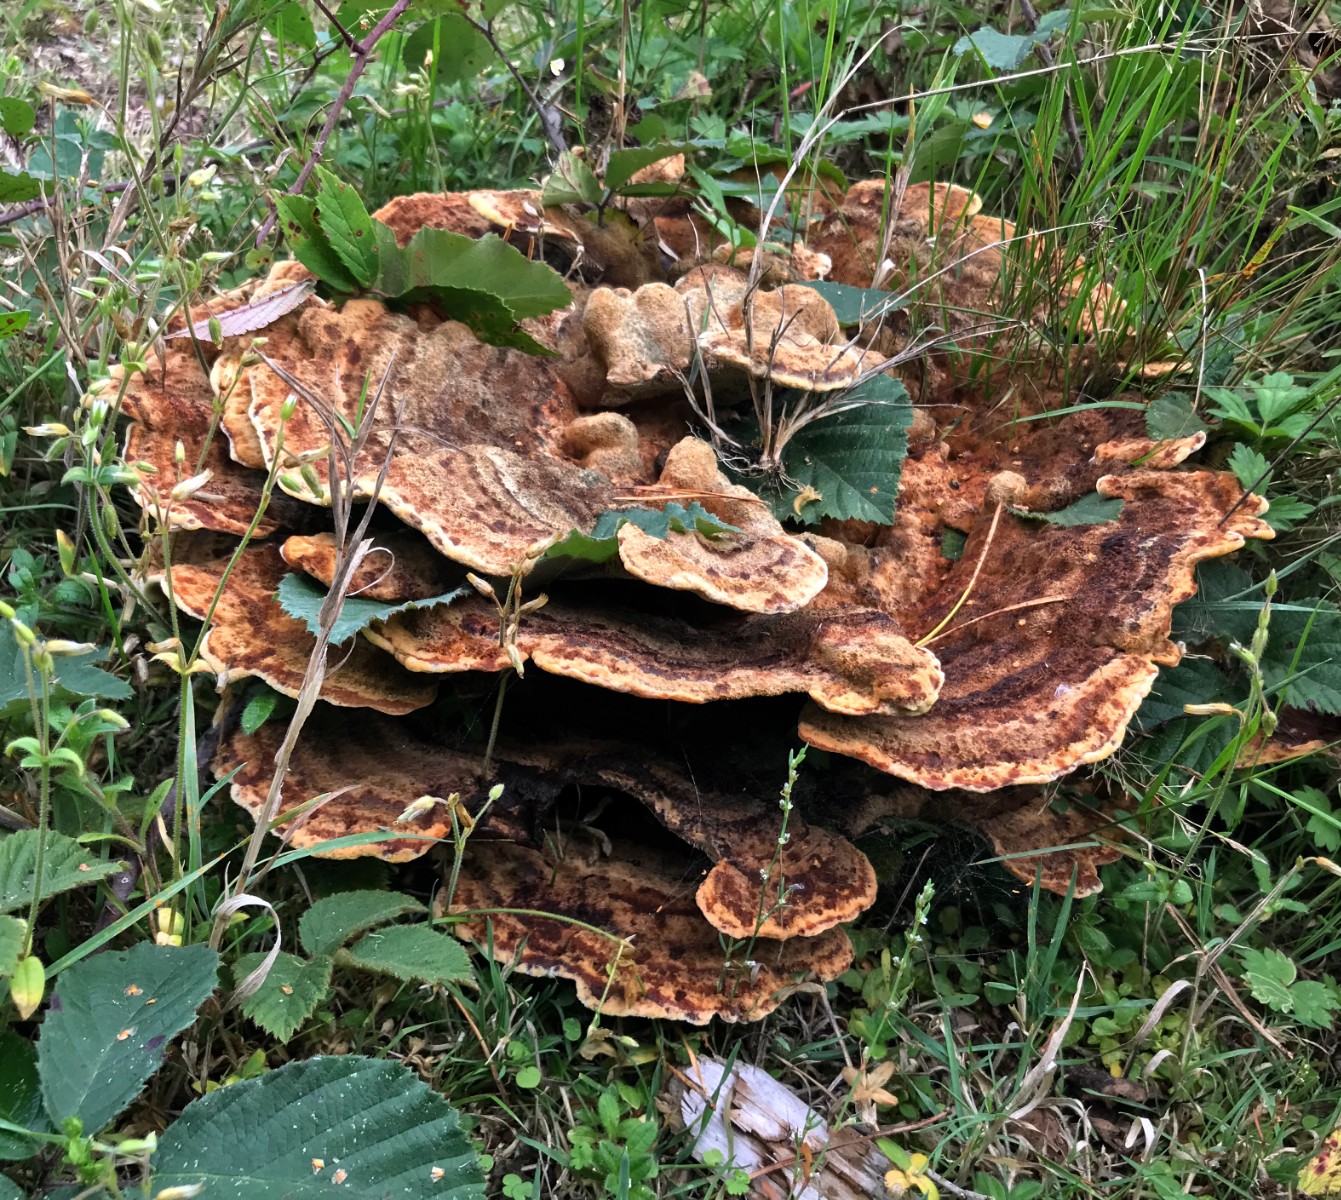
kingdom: Fungi
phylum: Basidiomycota
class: Agaricomycetes
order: Polyporales
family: Laetiporaceae
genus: Phaeolus
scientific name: Phaeolus schweinitzii
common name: brunporesvamp
